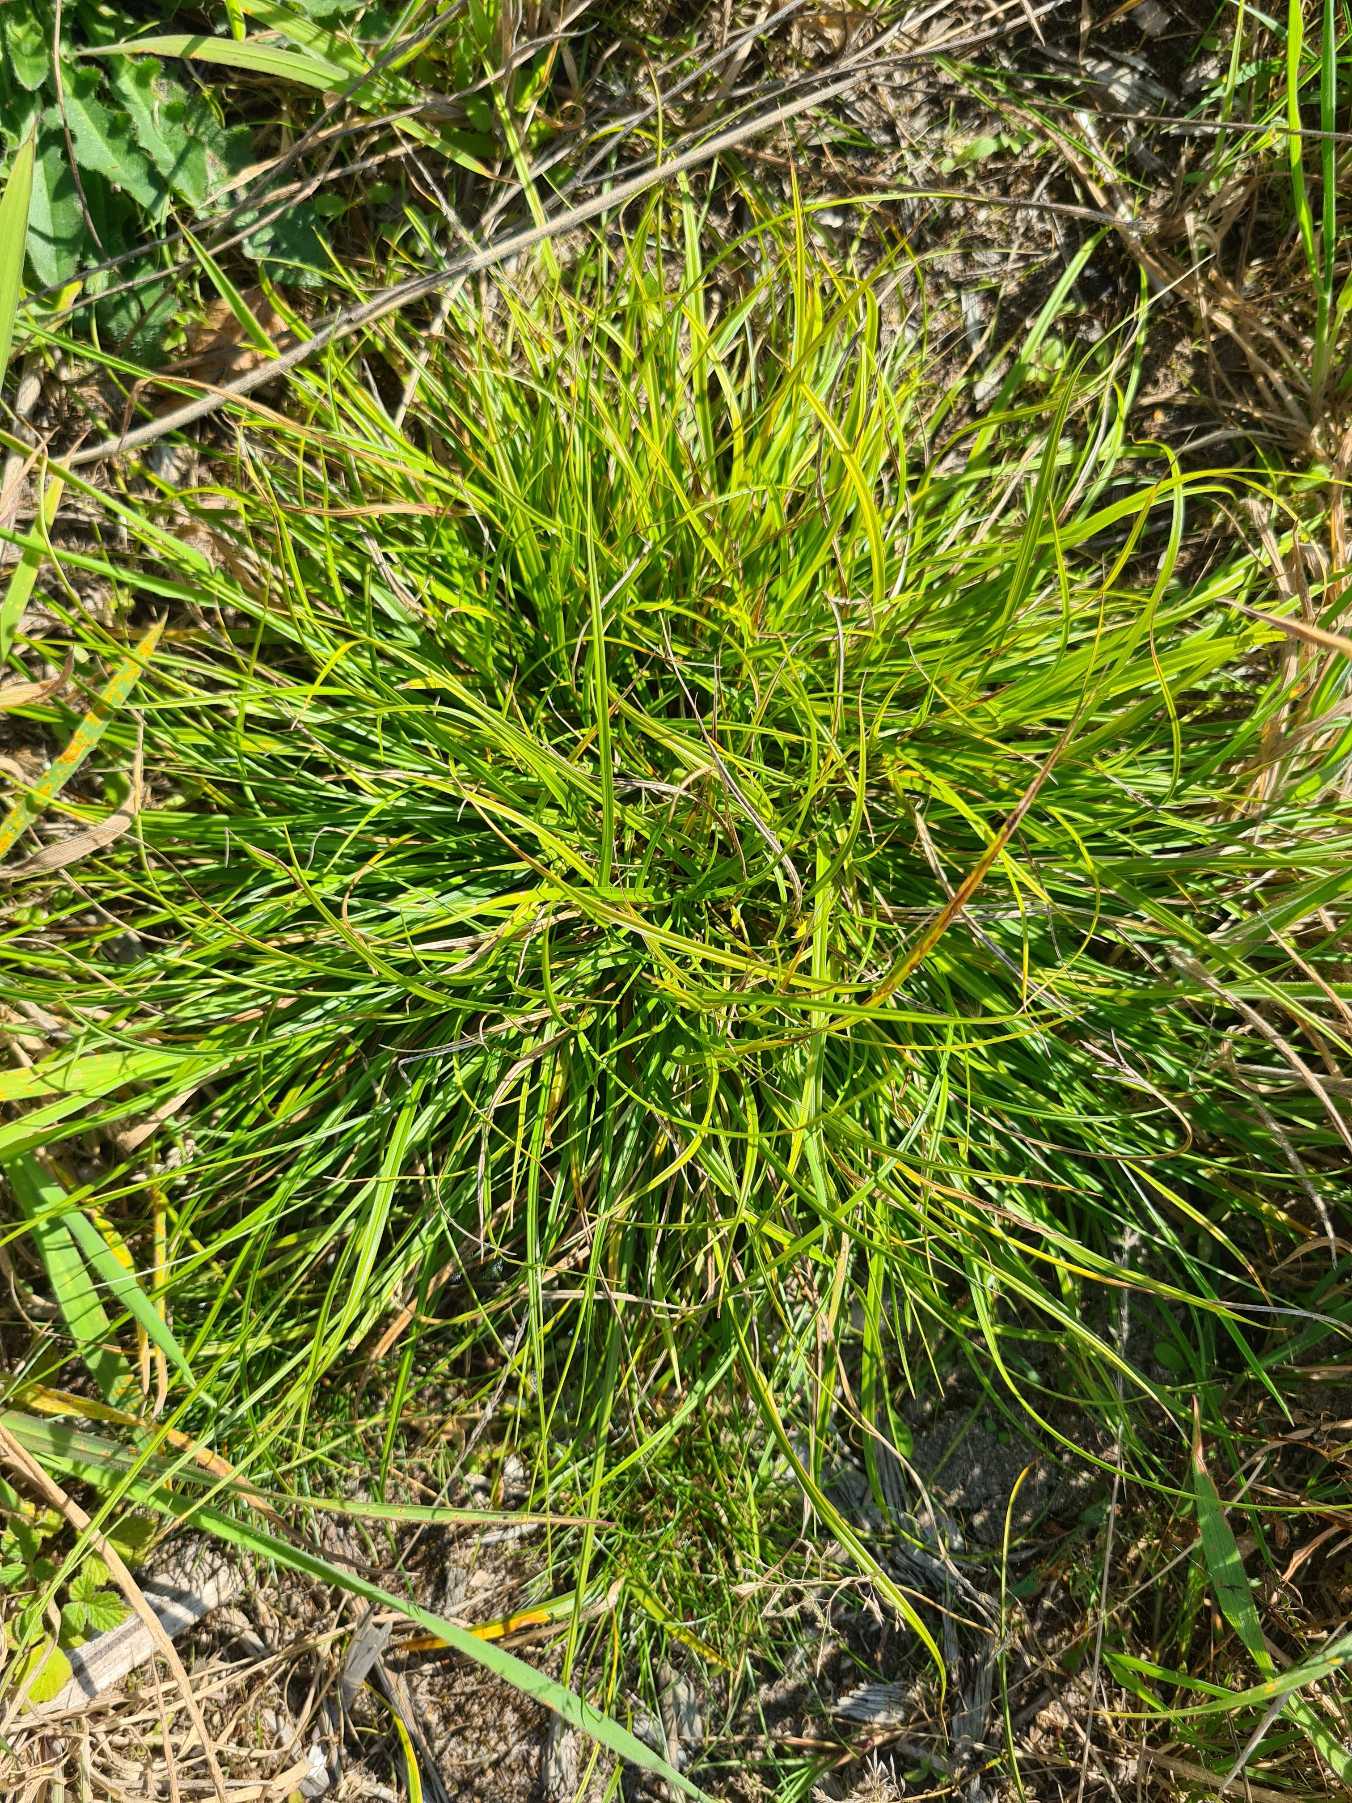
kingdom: Plantae
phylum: Tracheophyta
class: Liliopsida
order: Poales
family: Cyperaceae
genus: Carex
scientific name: Carex pilulifera
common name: Pille-star
